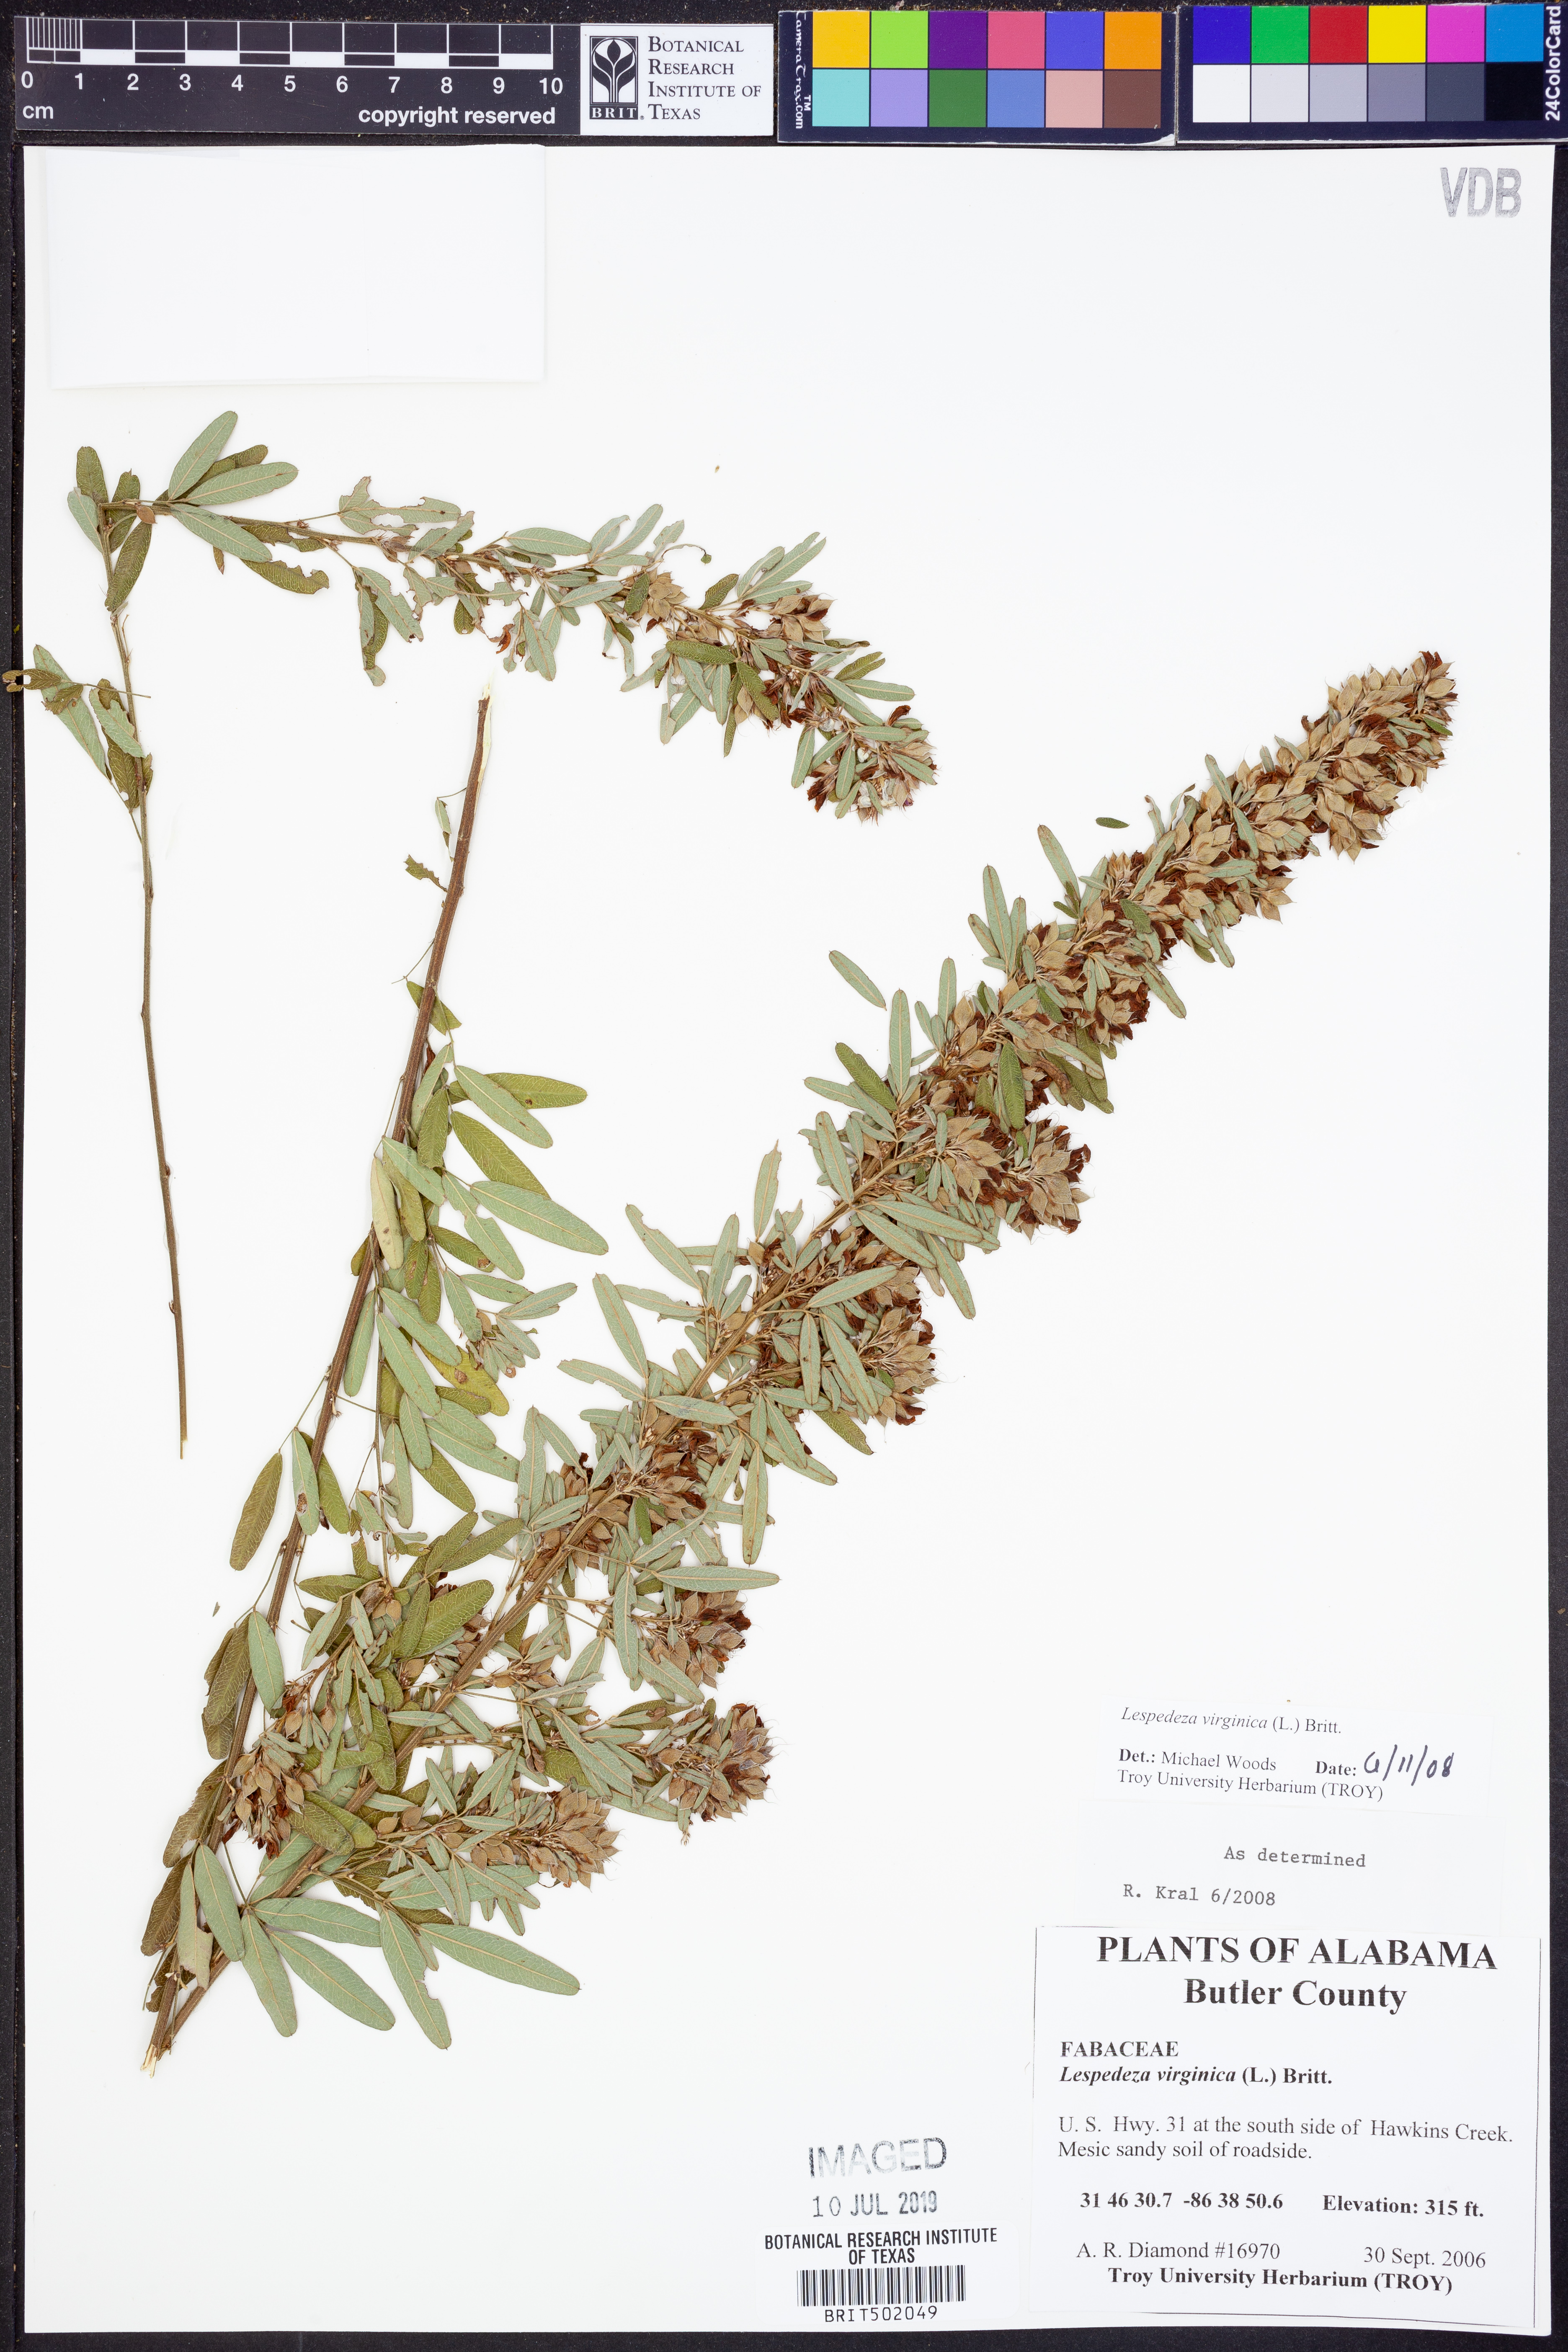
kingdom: Plantae
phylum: Tracheophyta
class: Magnoliopsida
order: Fabales
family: Fabaceae
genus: Lespedeza
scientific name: Lespedeza virginica
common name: Slender bush-clover
